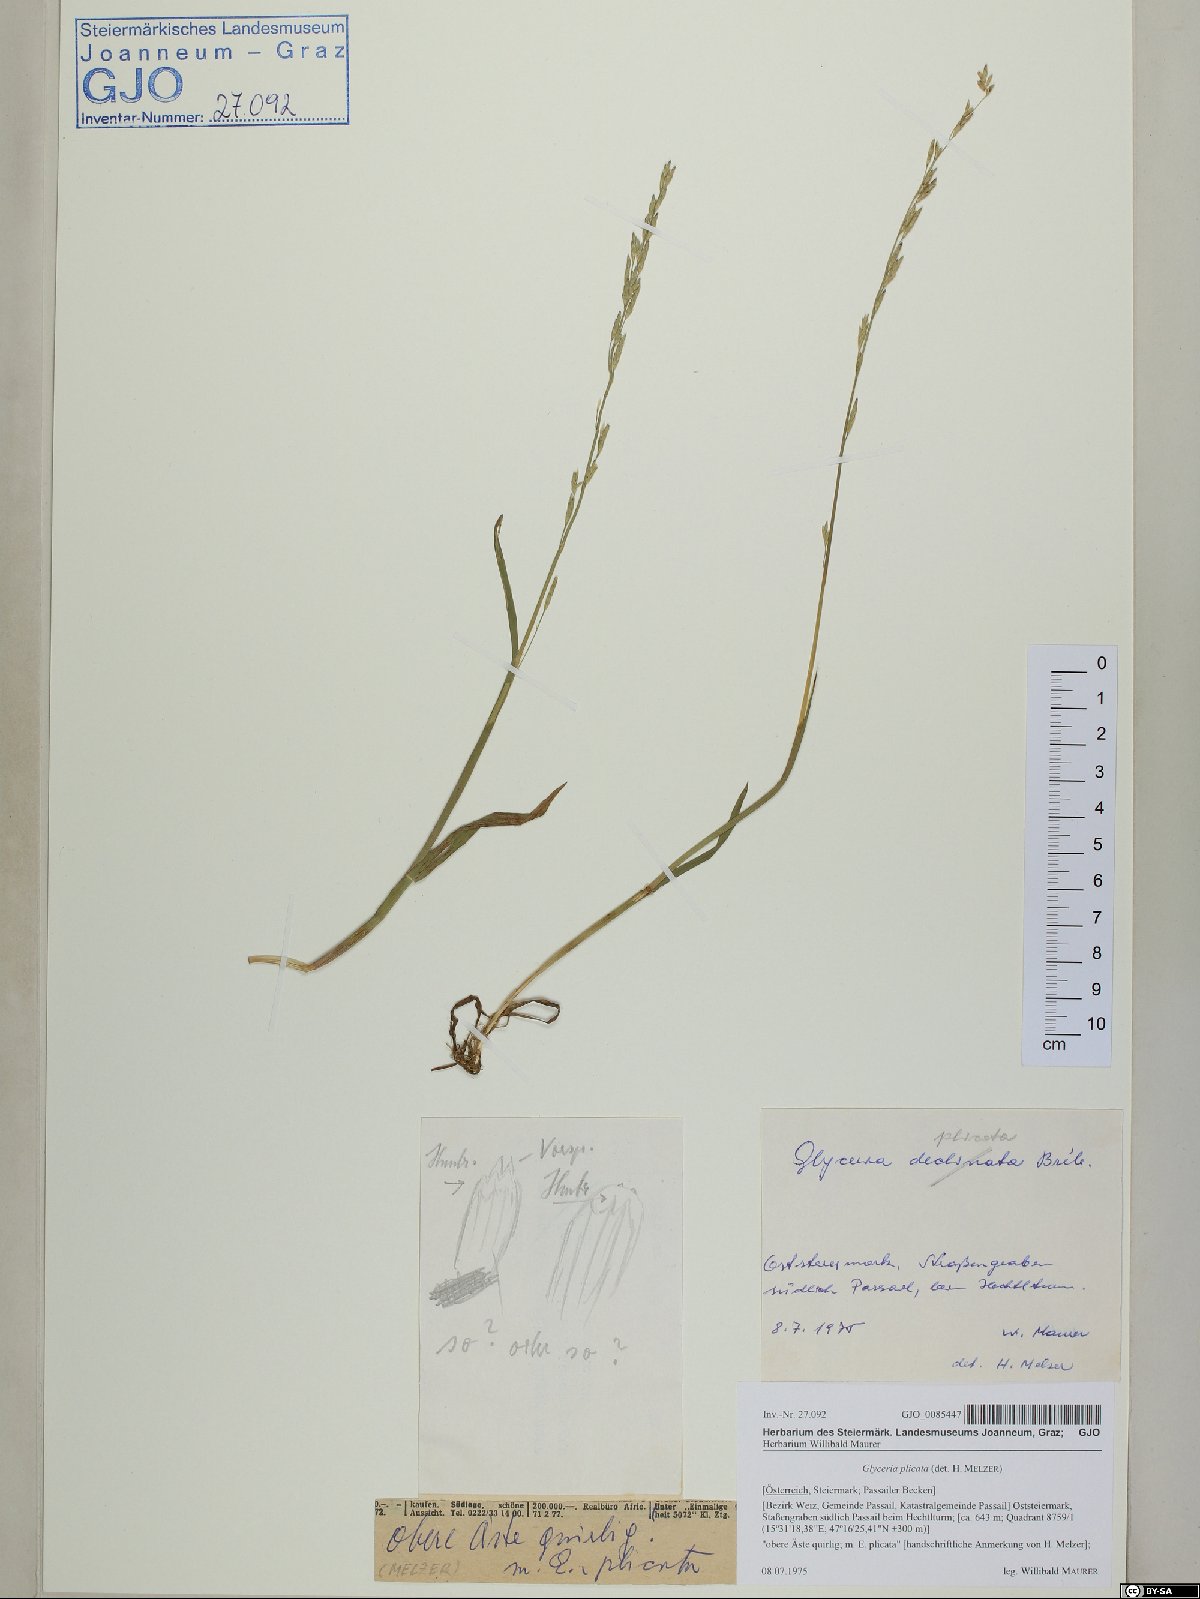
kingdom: Plantae
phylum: Tracheophyta
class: Liliopsida
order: Poales
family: Poaceae
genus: Glyceria
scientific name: Glyceria notata
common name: Plicate sweet-grass
